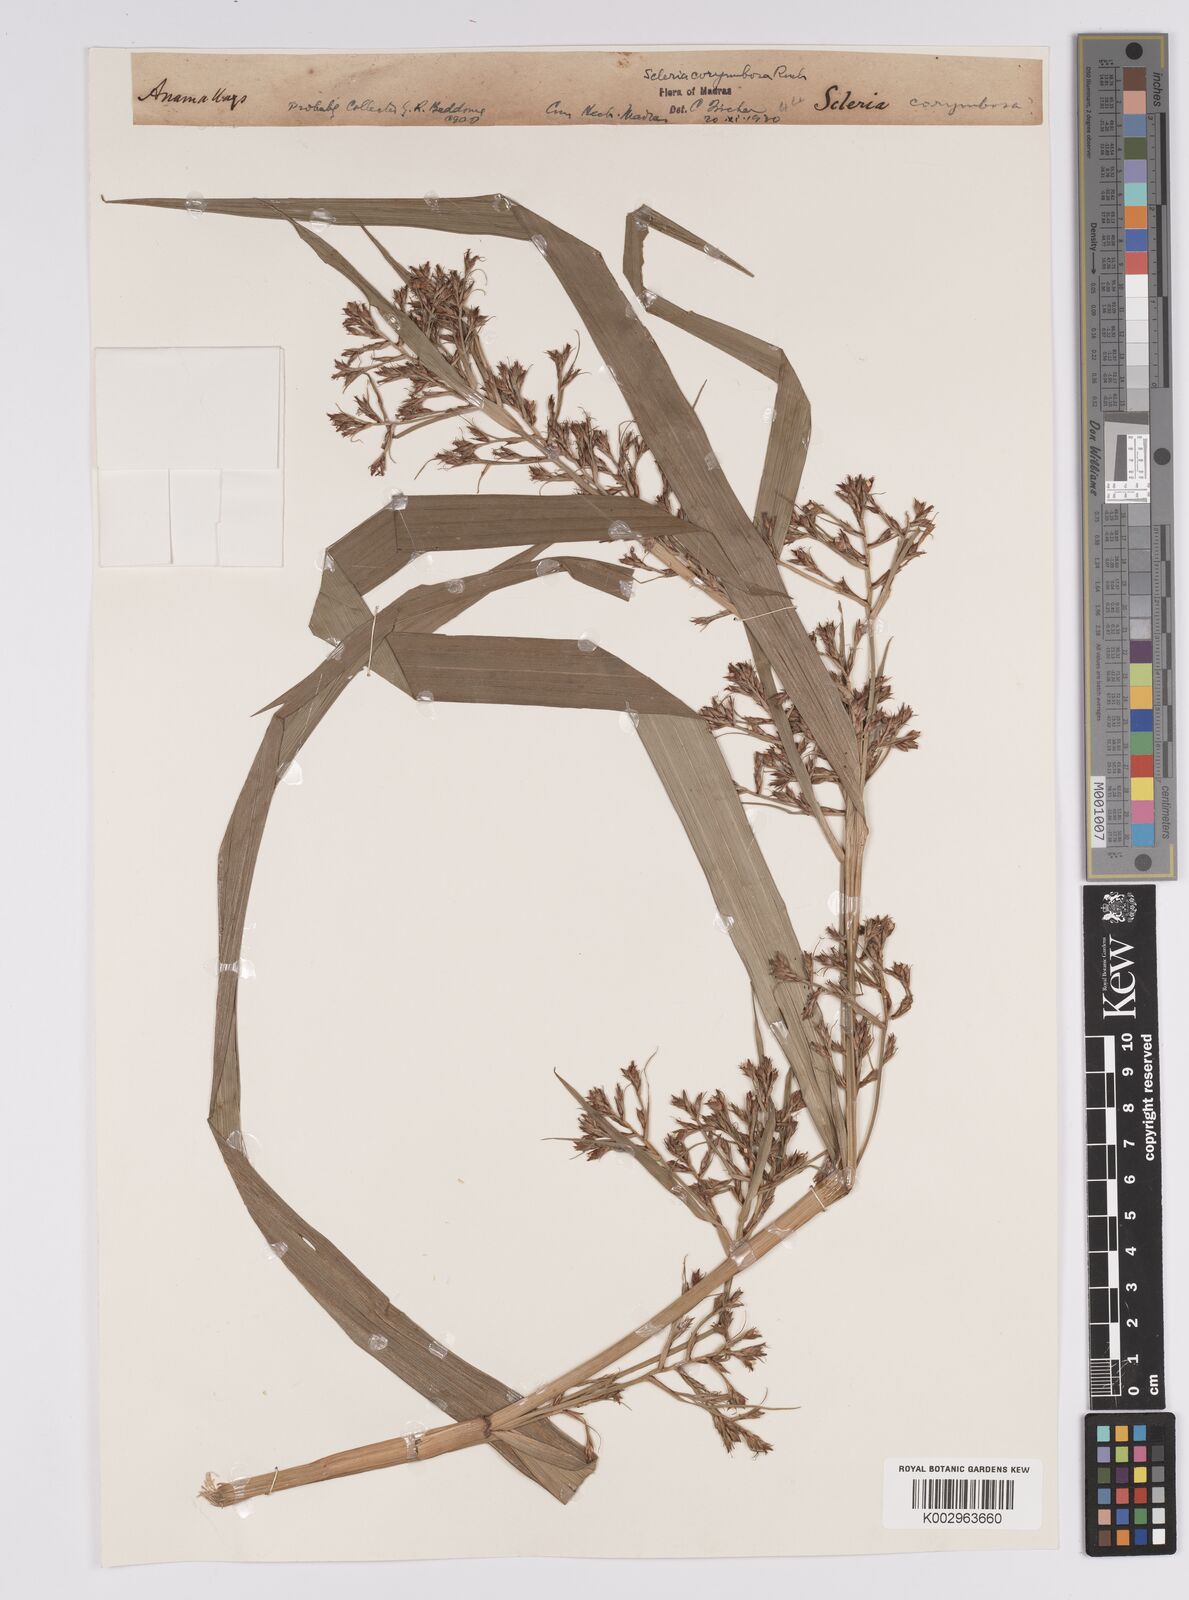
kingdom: Plantae
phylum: Tracheophyta
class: Liliopsida
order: Poales
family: Cyperaceae
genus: Scleria
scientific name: Scleria corymbosa
